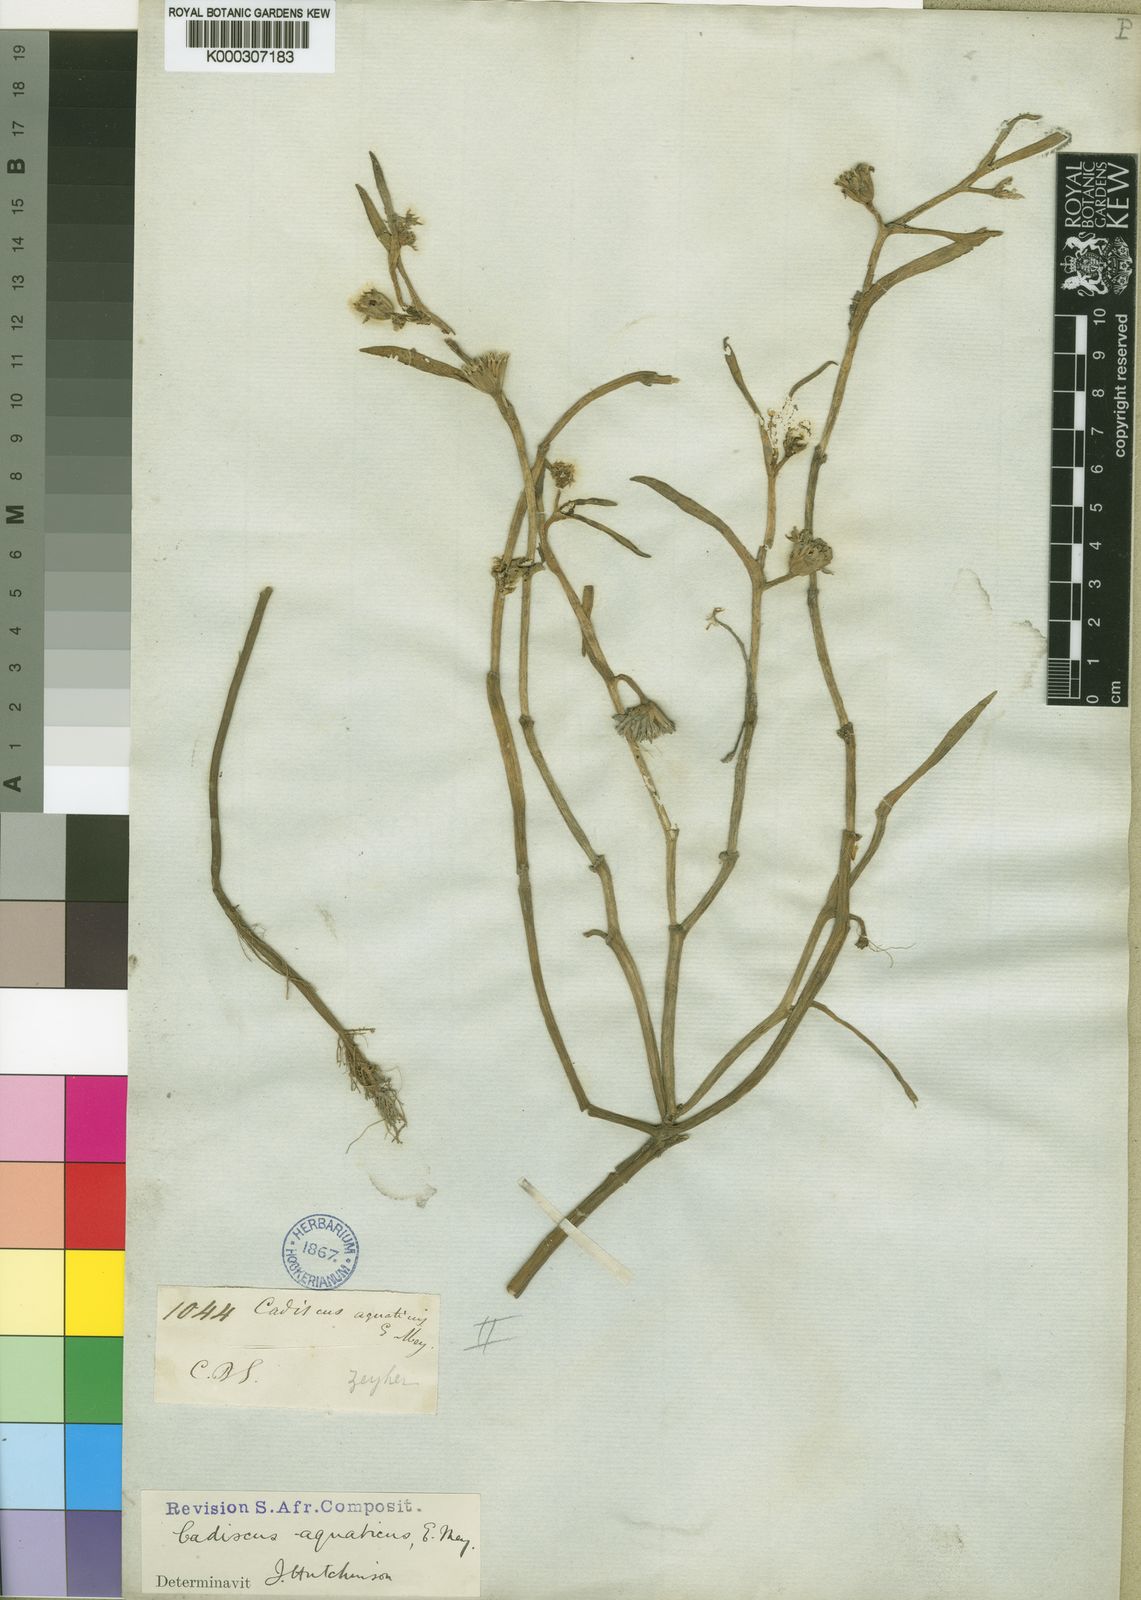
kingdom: Plantae
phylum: Tracheophyta
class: Magnoliopsida
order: Asterales
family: Asteraceae
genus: Cadiscus
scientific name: Cadiscus aquaticus
